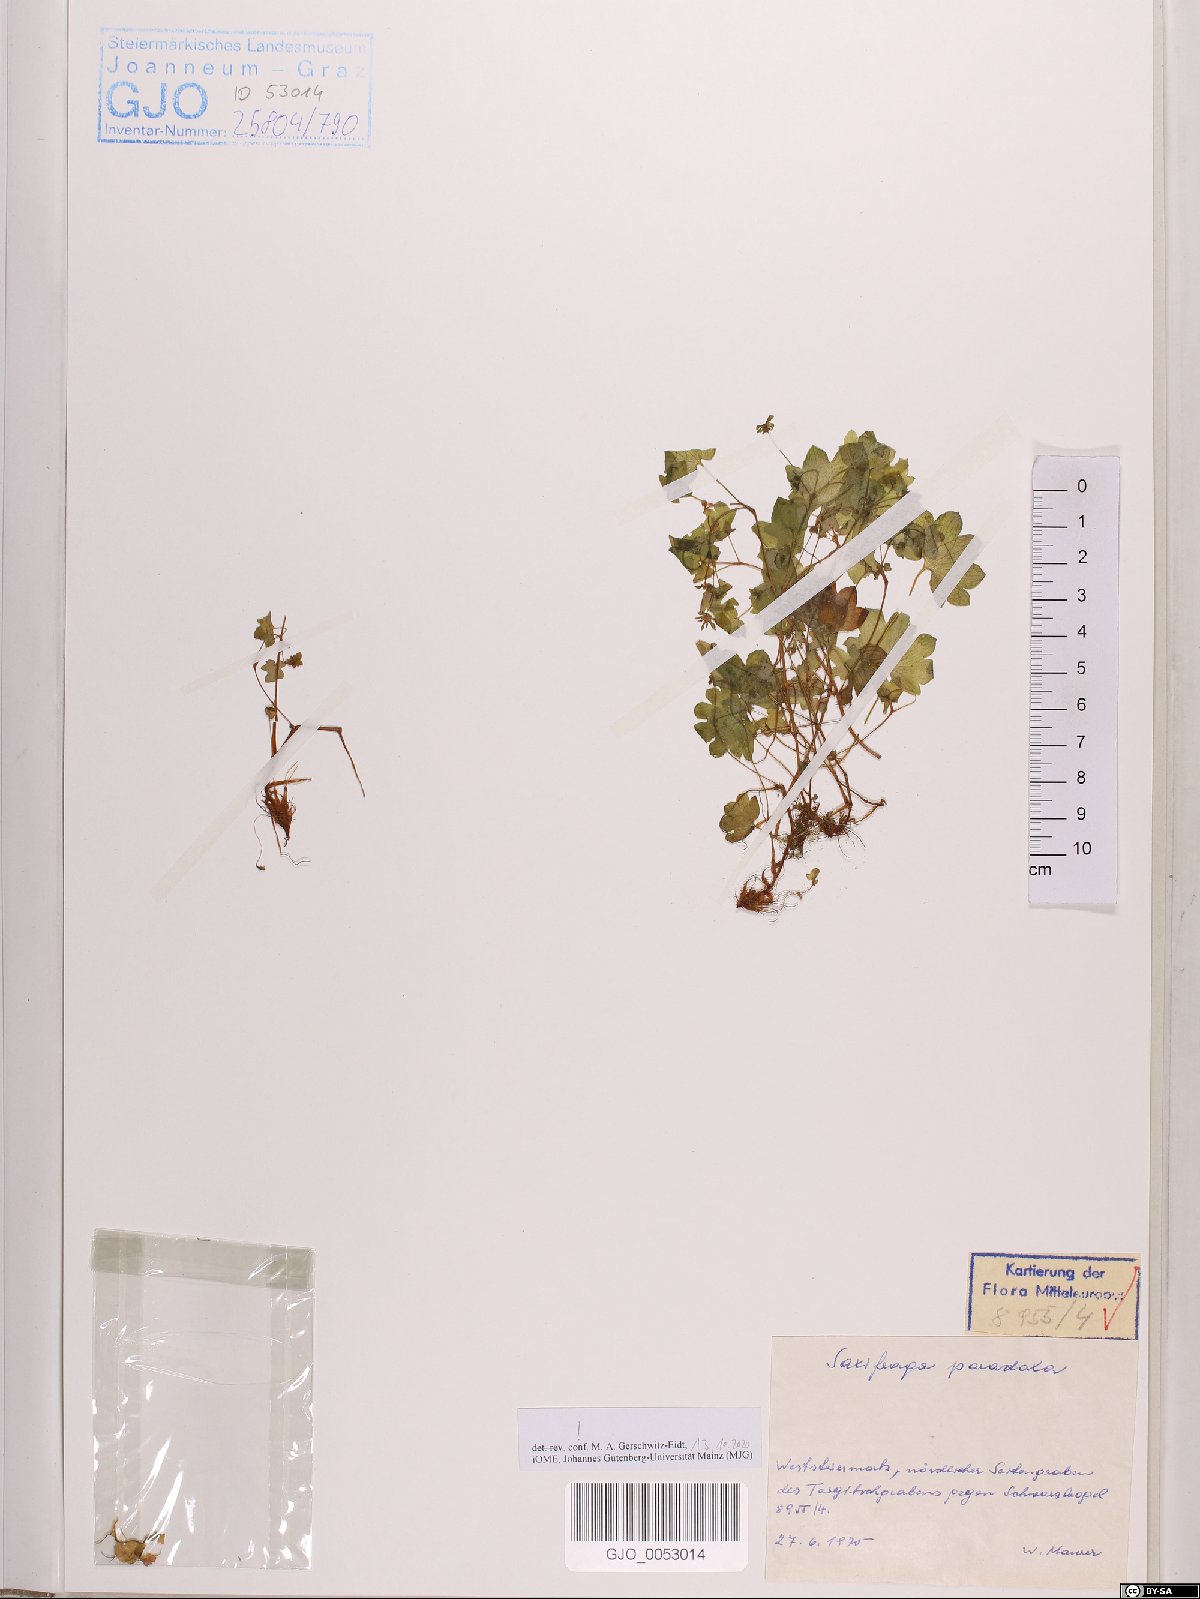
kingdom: Plantae
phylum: Tracheophyta
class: Magnoliopsida
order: Saxifragales
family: Saxifragaceae
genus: Saxifraga
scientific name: Saxifraga paradoxa
